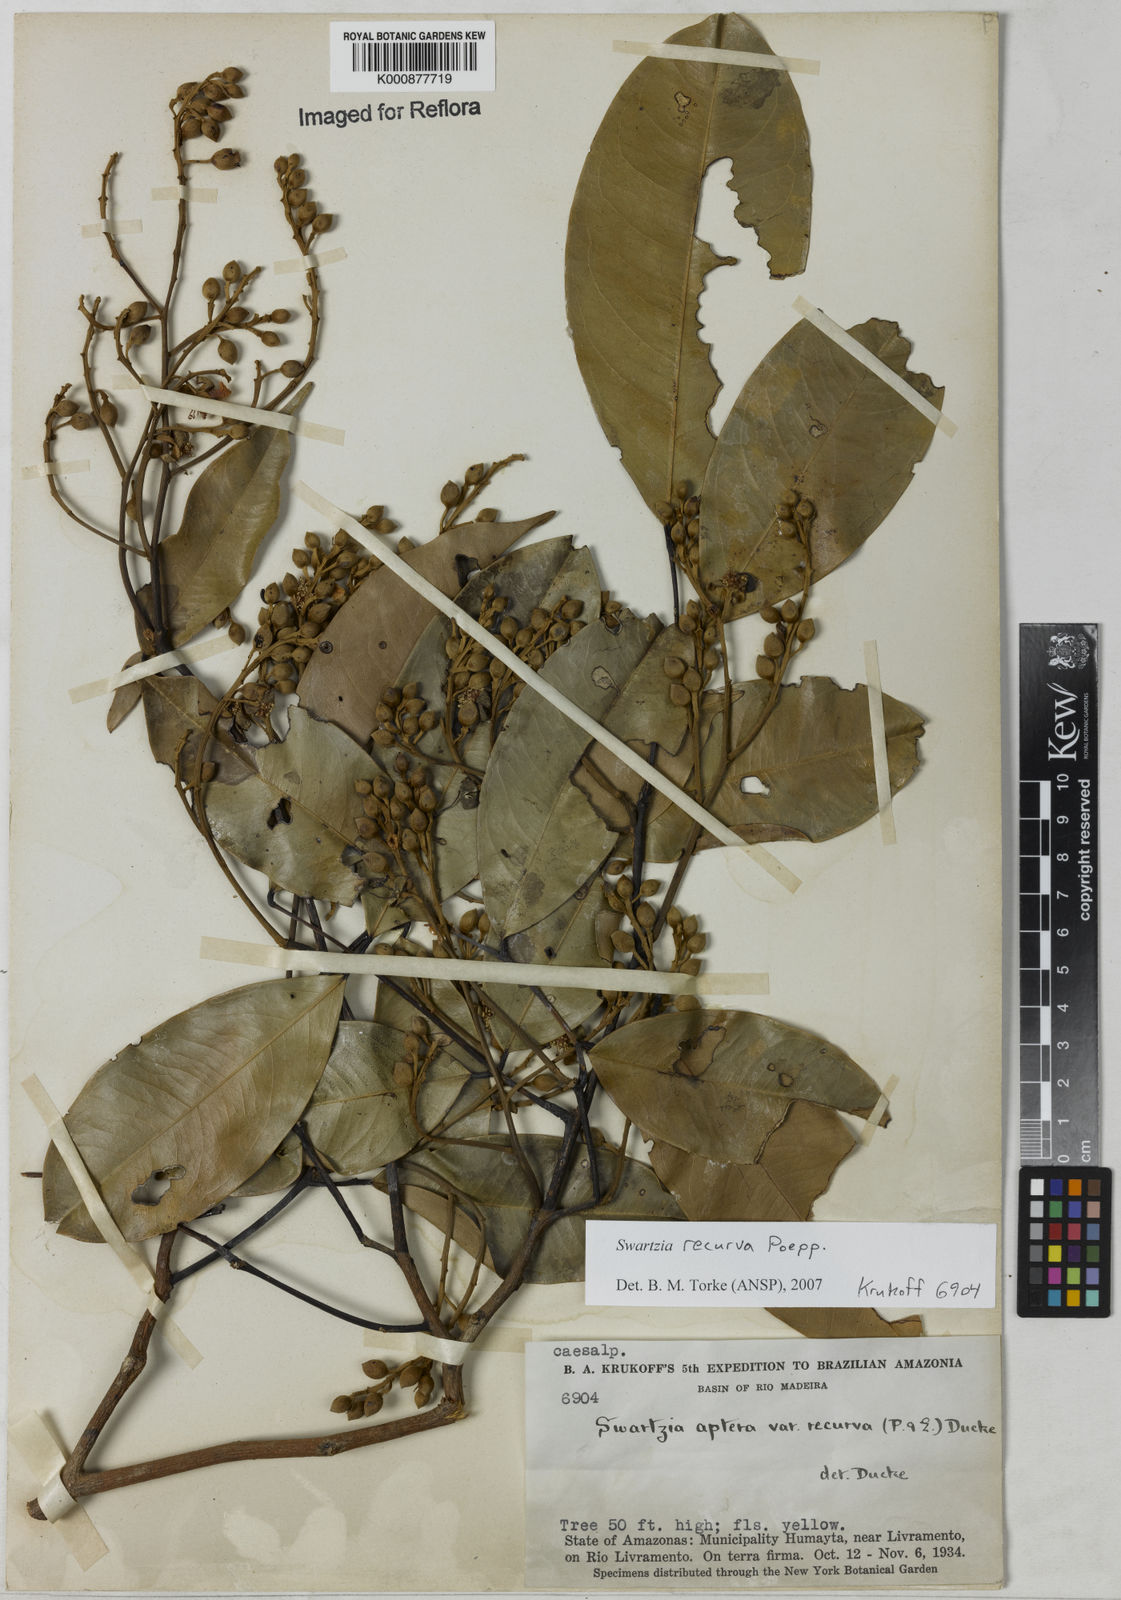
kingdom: Plantae
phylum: Tracheophyta
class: Magnoliopsida
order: Fabales
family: Fabaceae
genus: Swartzia
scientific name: Swartzia recurva
